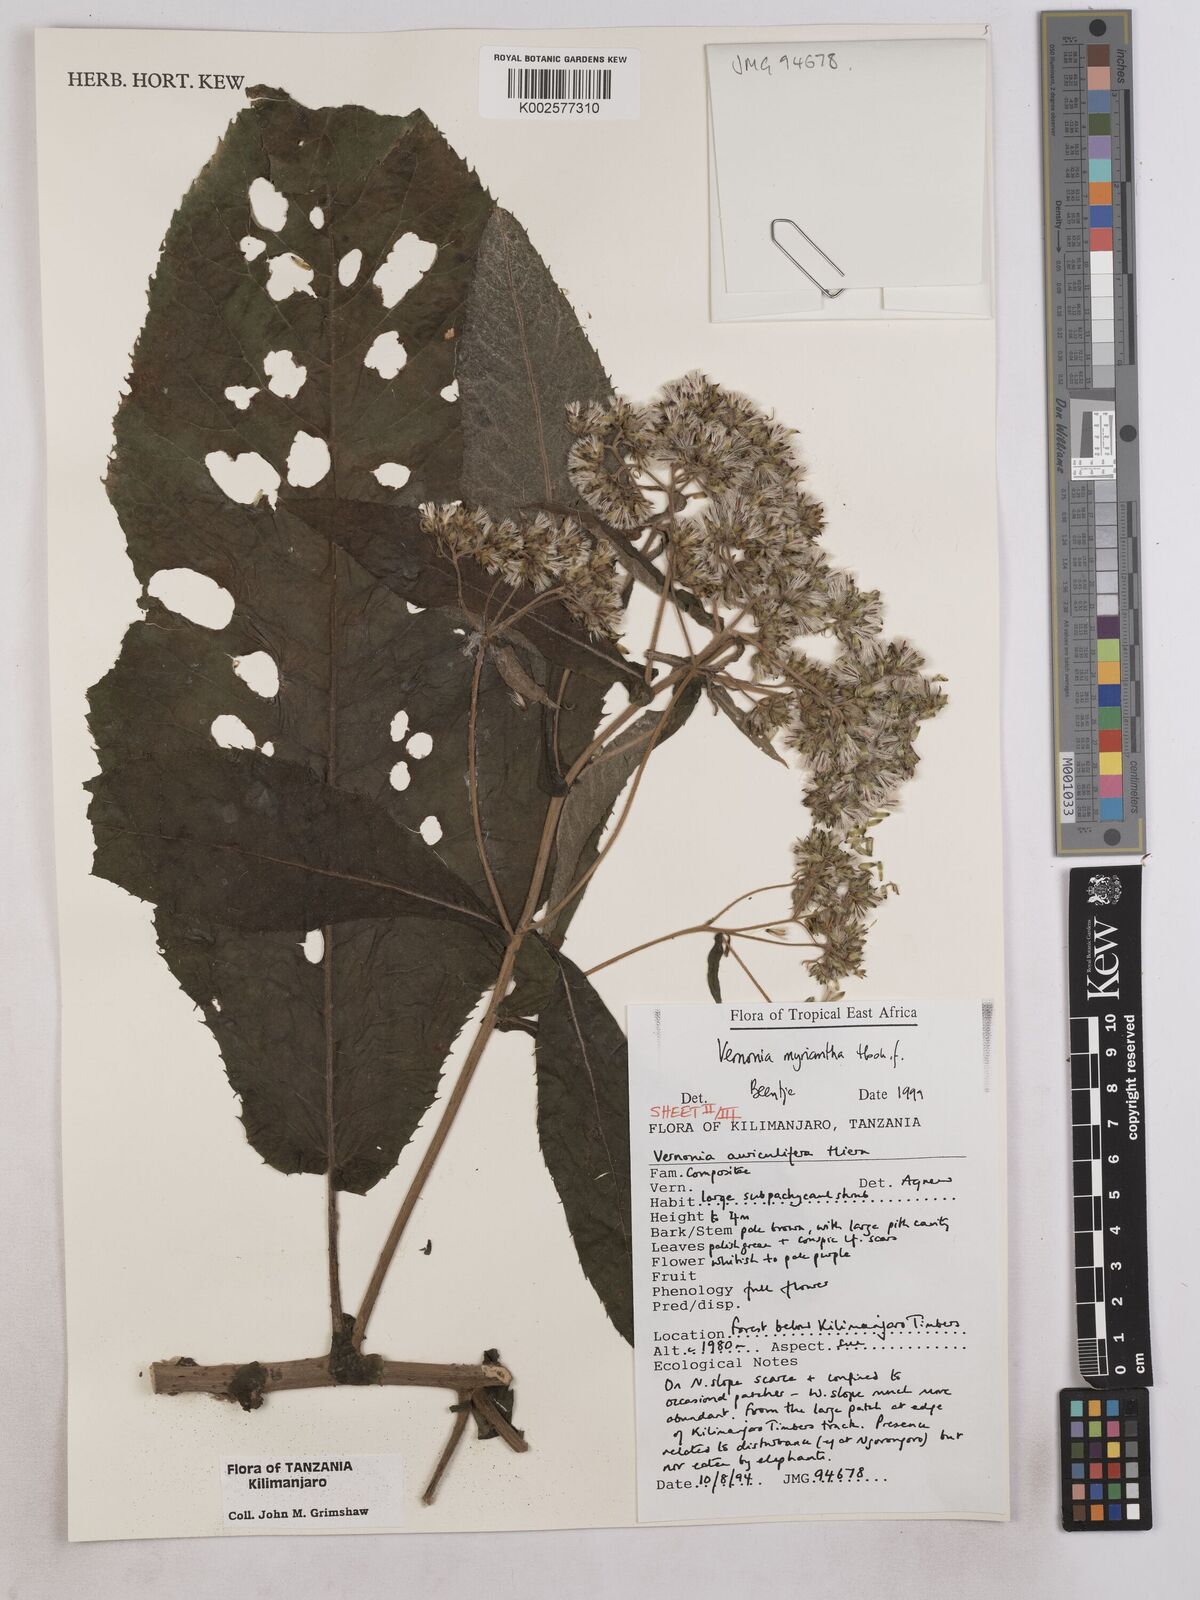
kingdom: Plantae
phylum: Tracheophyta
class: Magnoliopsida
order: Asterales
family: Asteraceae
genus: Gymnanthemum
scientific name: Gymnanthemum myrianthum
